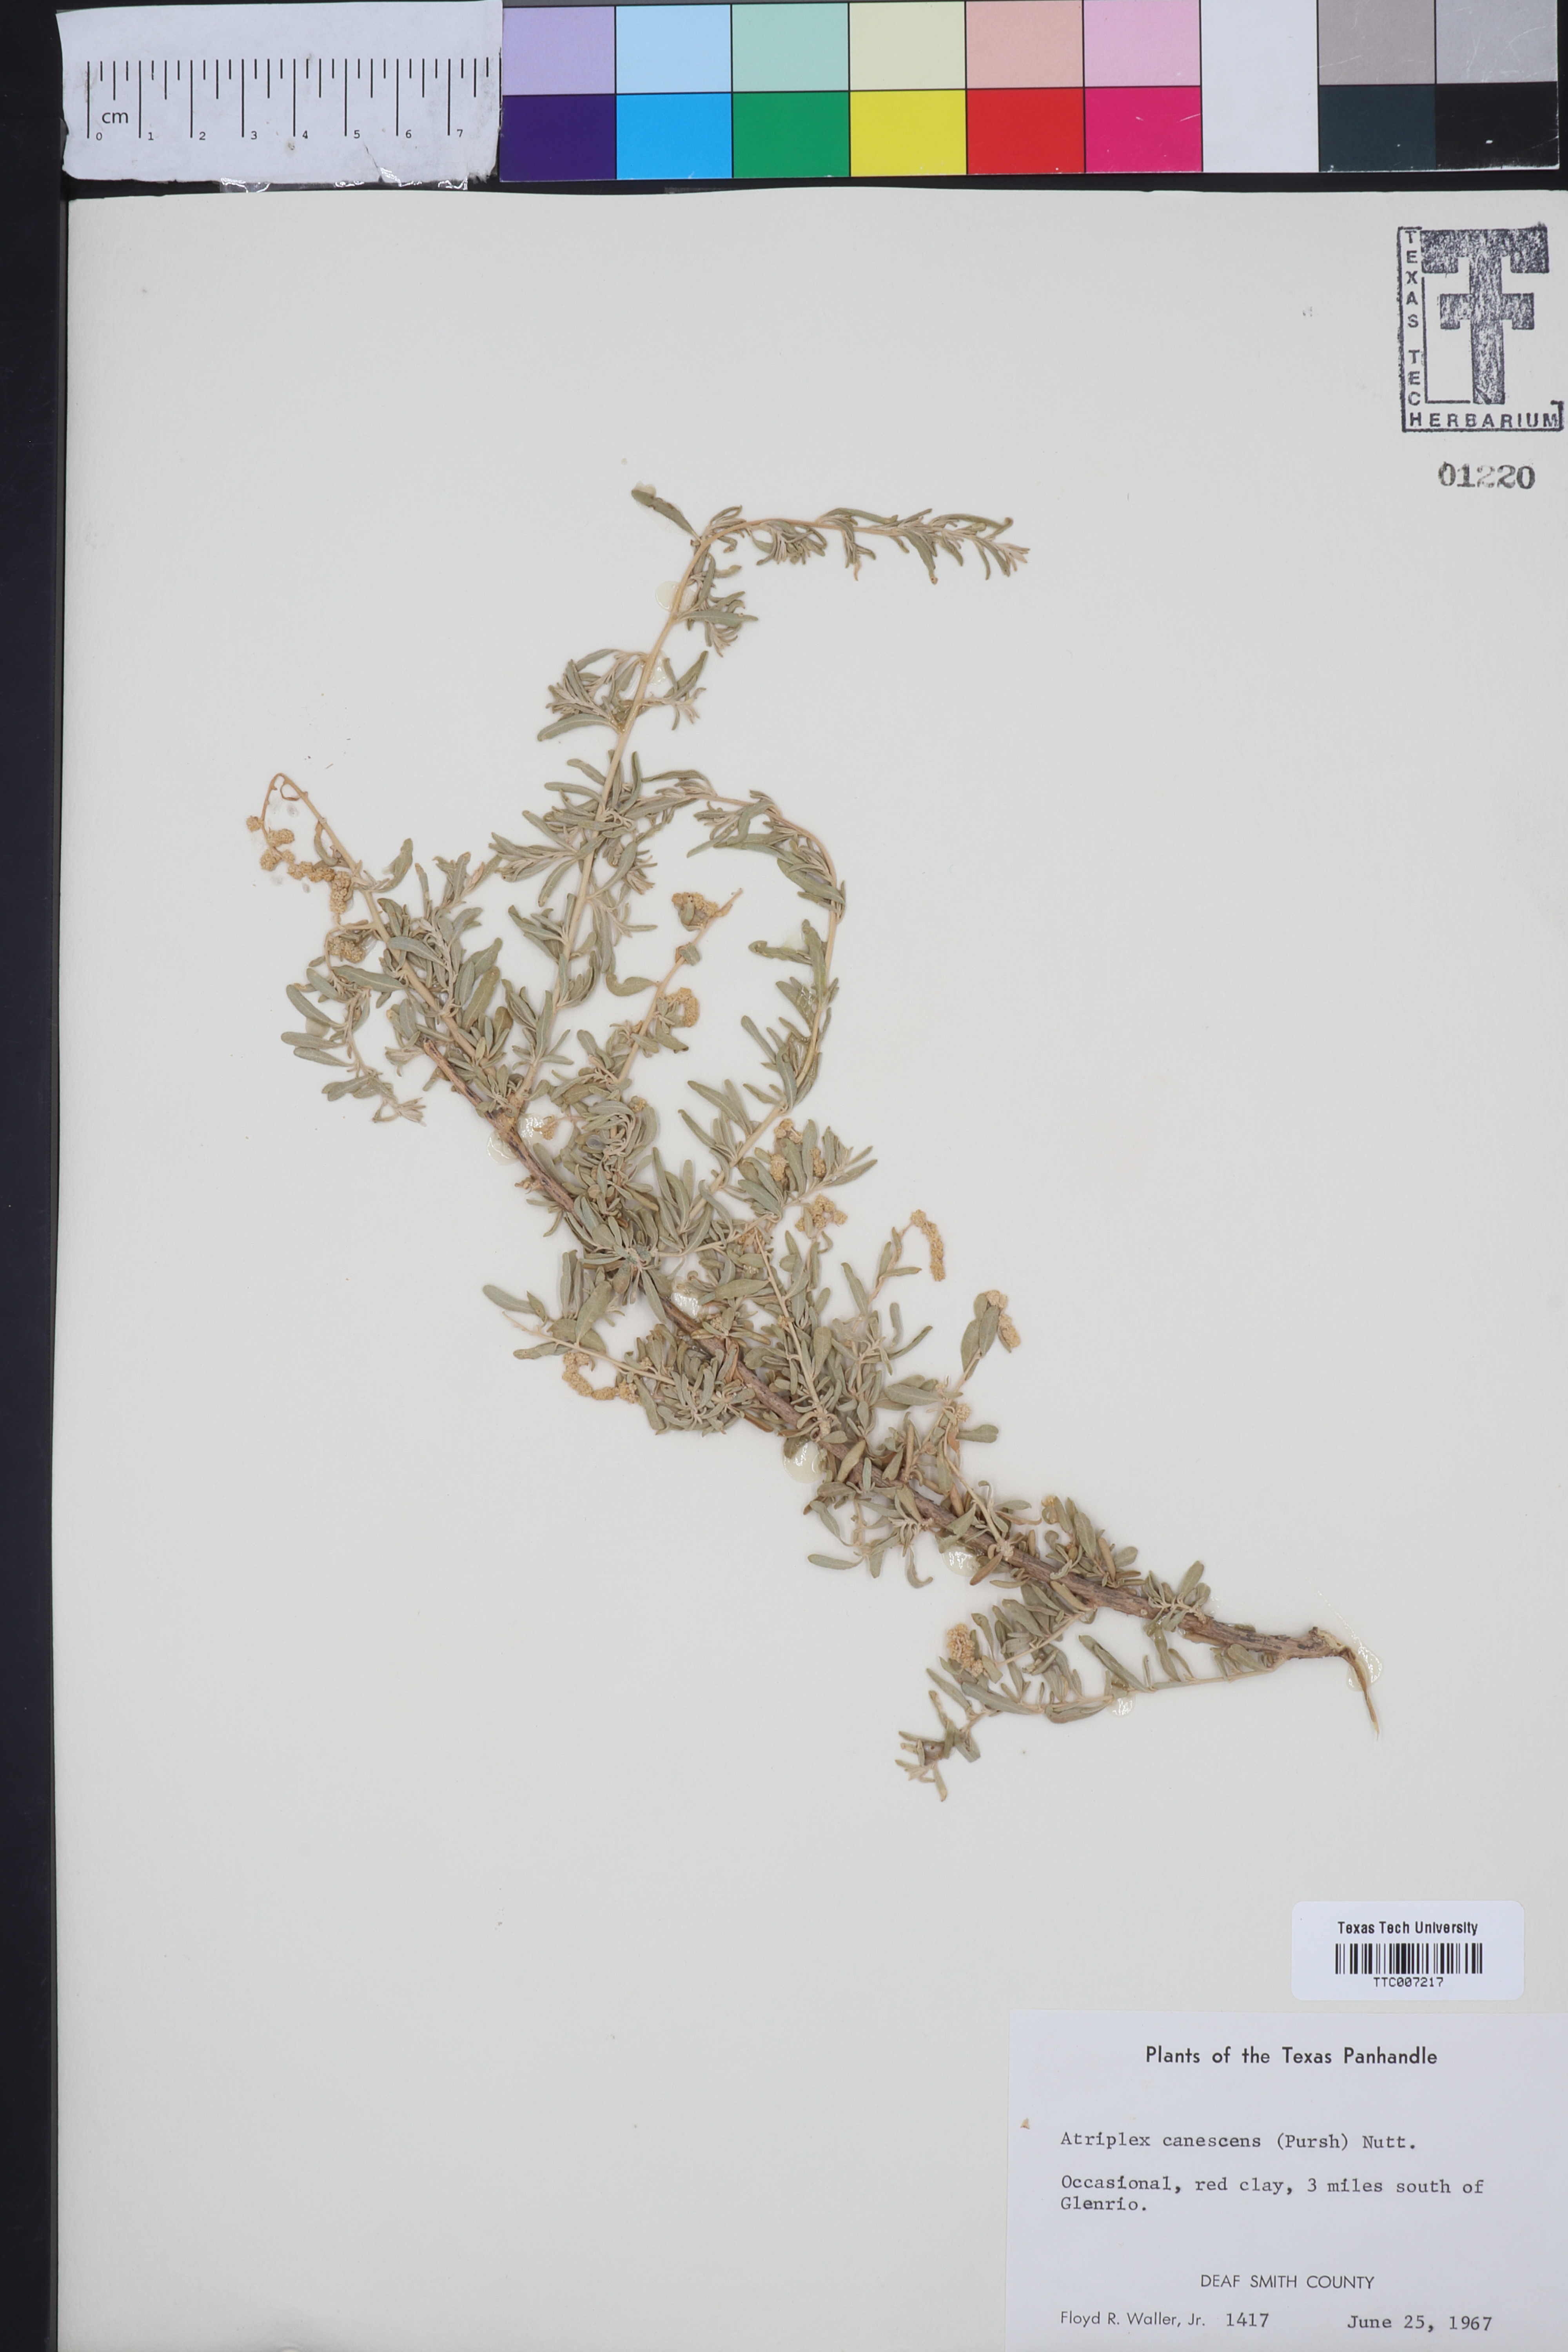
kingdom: Plantae
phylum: Tracheophyta
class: Magnoliopsida
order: Caryophyllales
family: Amaranthaceae
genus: Atriplex
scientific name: Atriplex canescens
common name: Four-wing saltbush
